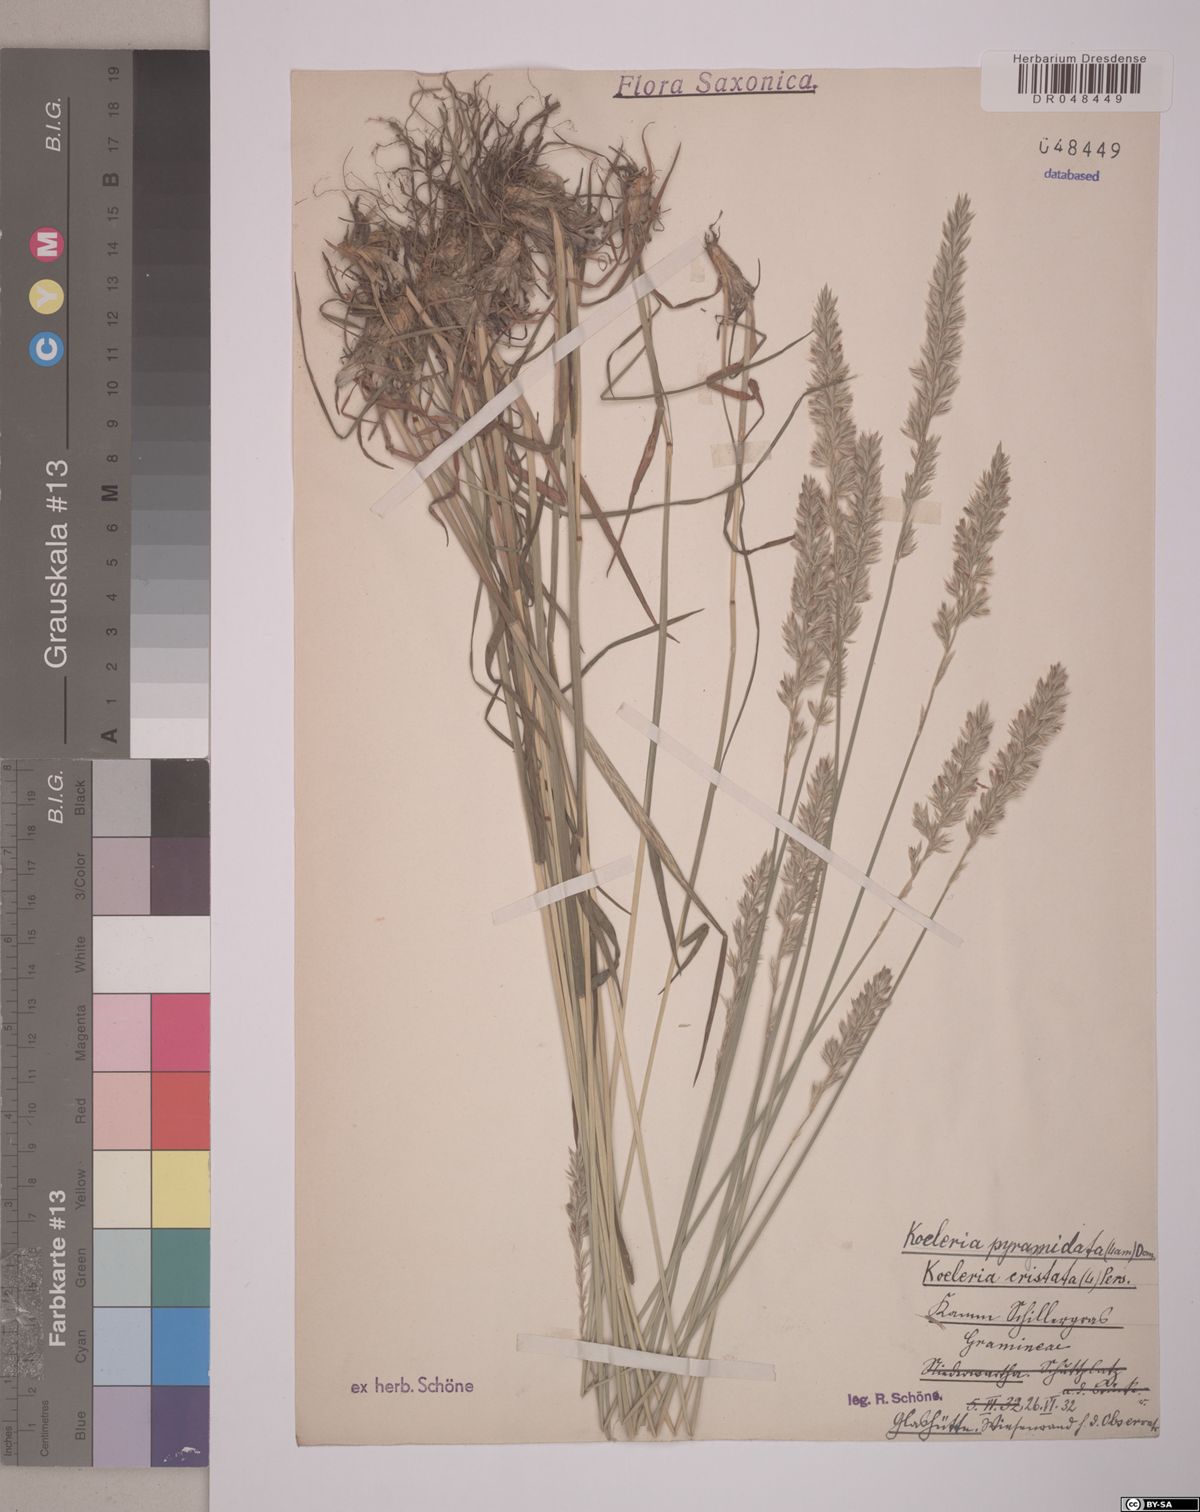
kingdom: Plantae
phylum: Tracheophyta
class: Liliopsida
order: Poales
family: Poaceae
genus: Koeleria
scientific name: Koeleria pyramidata
